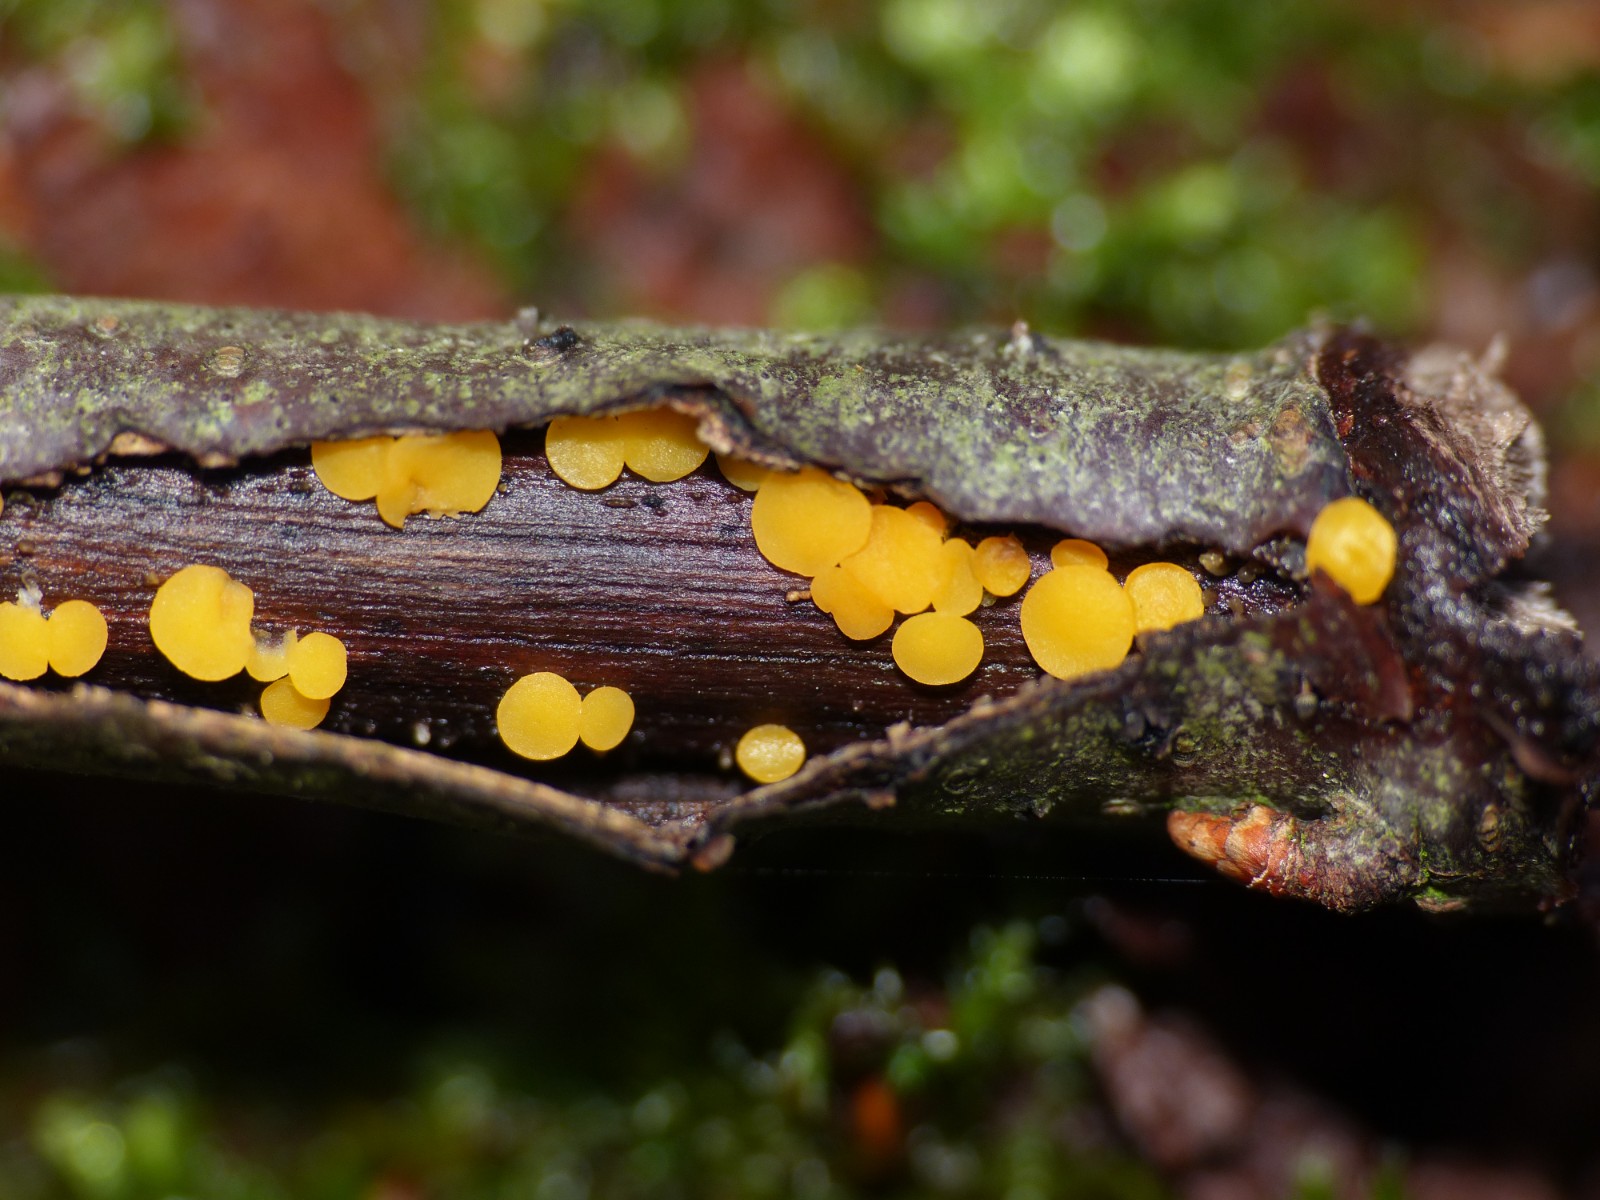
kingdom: Fungi
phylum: Ascomycota
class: Leotiomycetes
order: Helotiales
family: Pezizellaceae
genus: Calycina
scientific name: Calycina citrina
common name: almindelig gulskive
